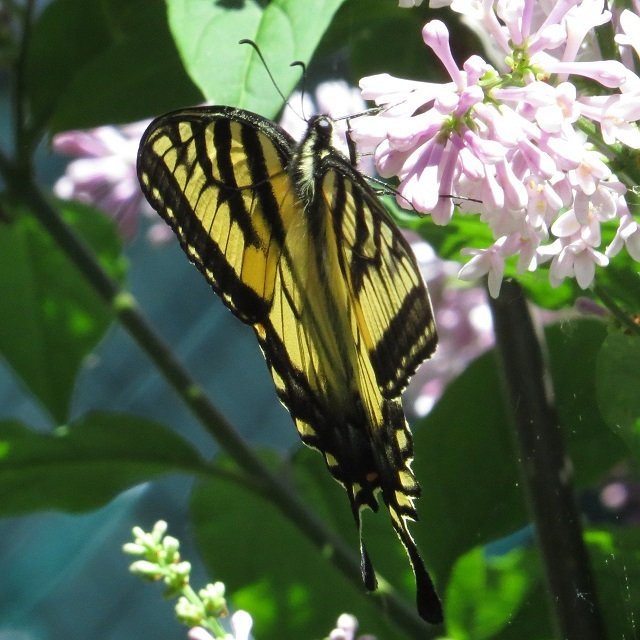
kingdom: Animalia
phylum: Arthropoda
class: Insecta
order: Lepidoptera
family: Papilionidae
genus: Pterourus
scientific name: Pterourus glaucus
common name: Eastern Tiger Swallowtail
